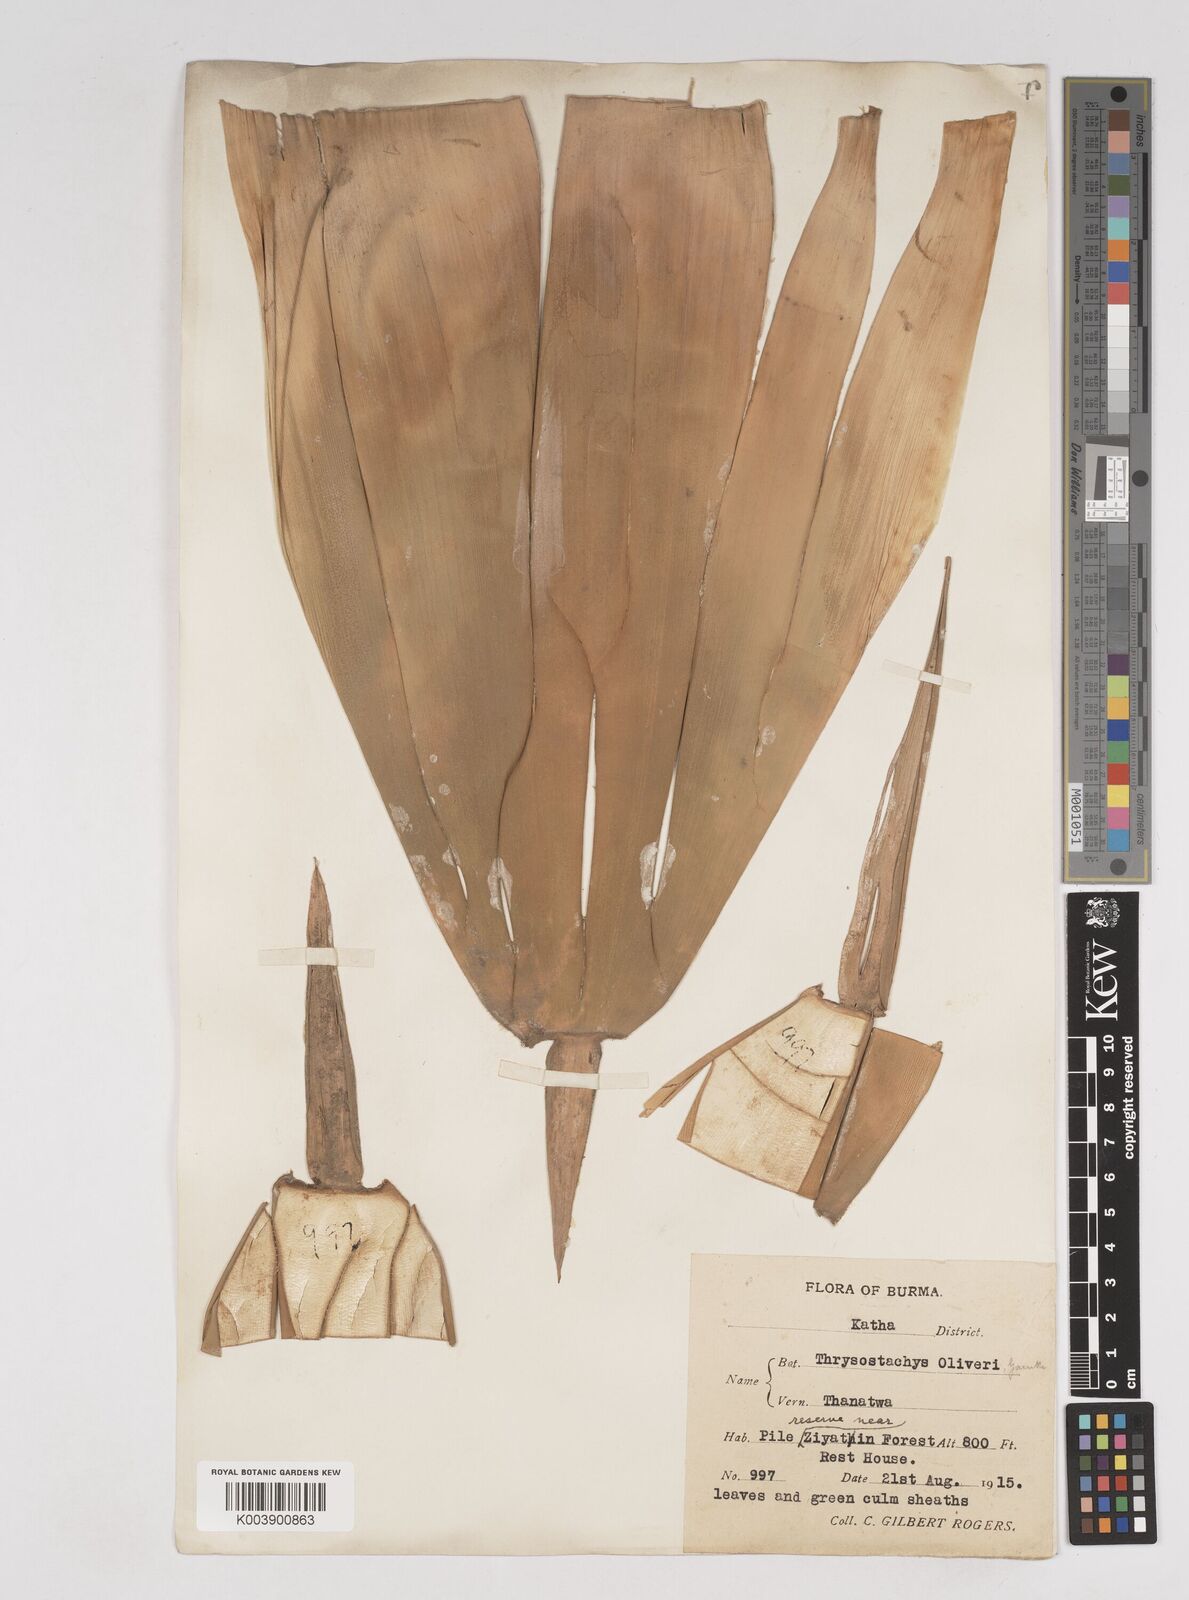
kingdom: Plantae
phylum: Tracheophyta
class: Liliopsida
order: Poales
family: Poaceae
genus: Thyrsostachys
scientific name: Thyrsostachys oliveri
